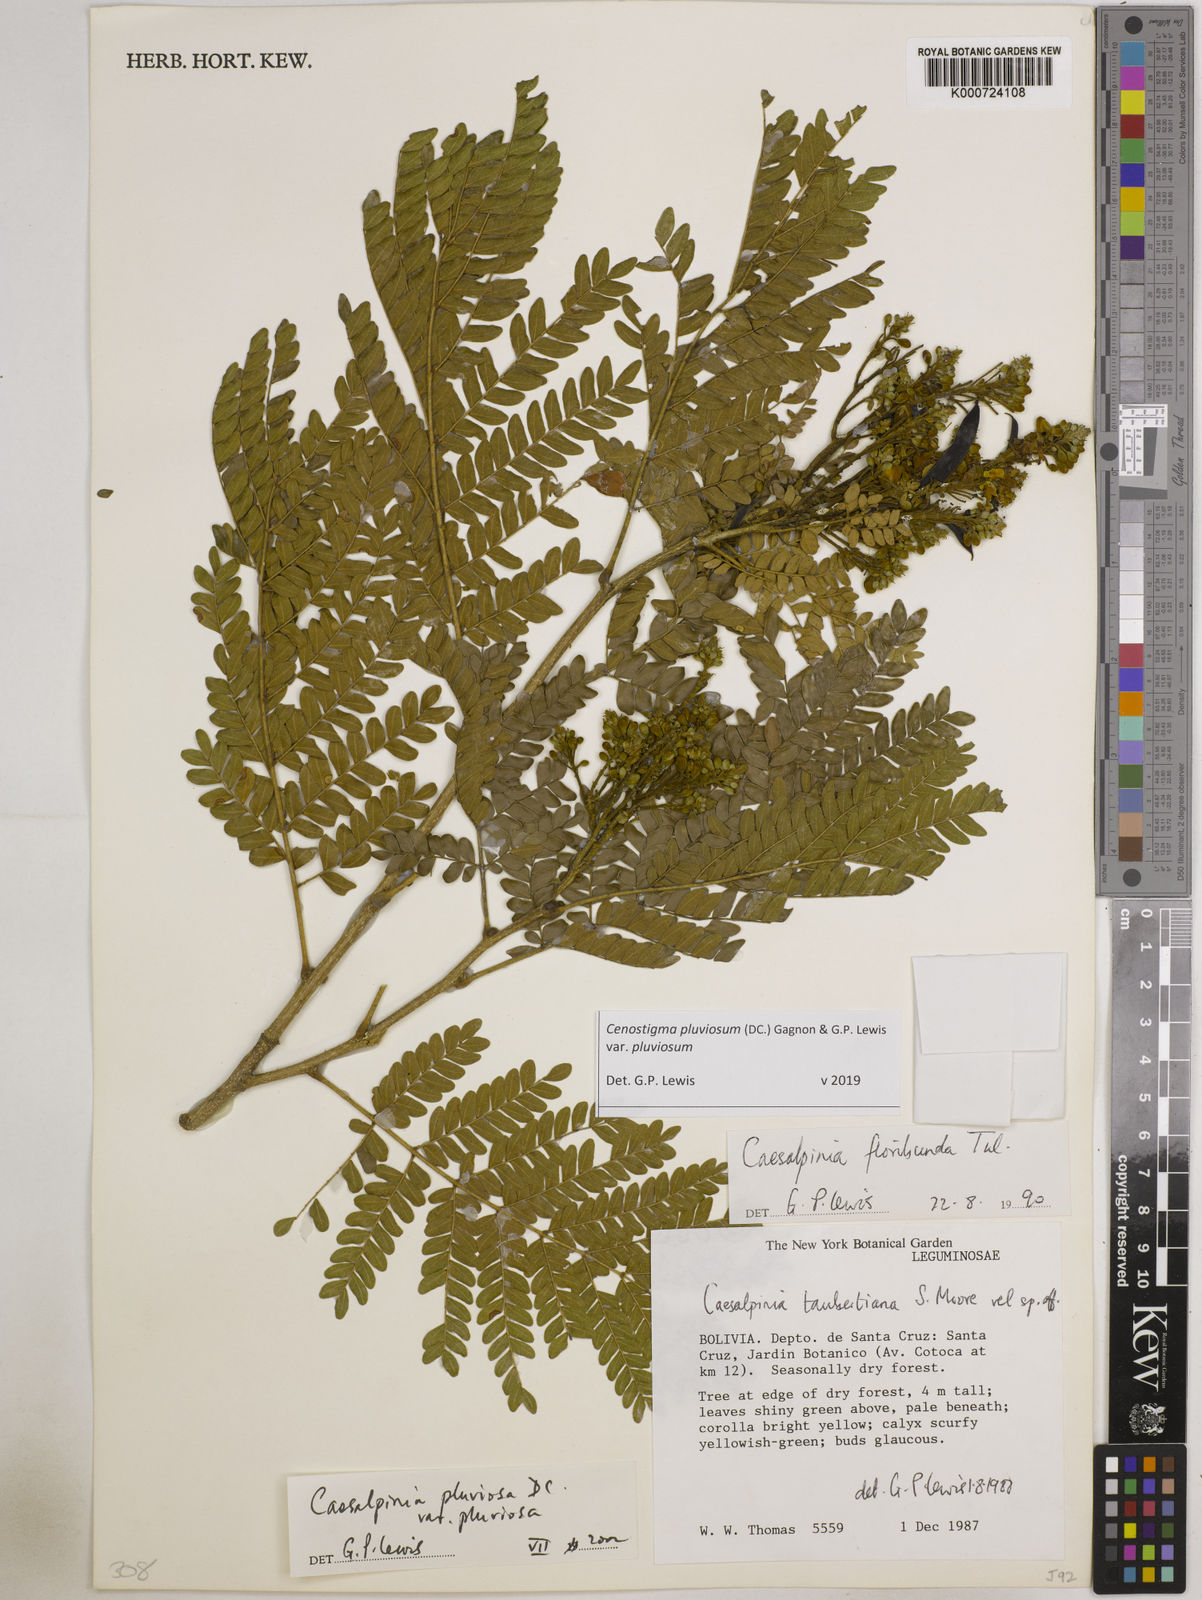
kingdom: Plantae
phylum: Tracheophyta
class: Magnoliopsida
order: Fabales
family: Fabaceae
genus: Cenostigma
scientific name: Cenostigma pluviosum
